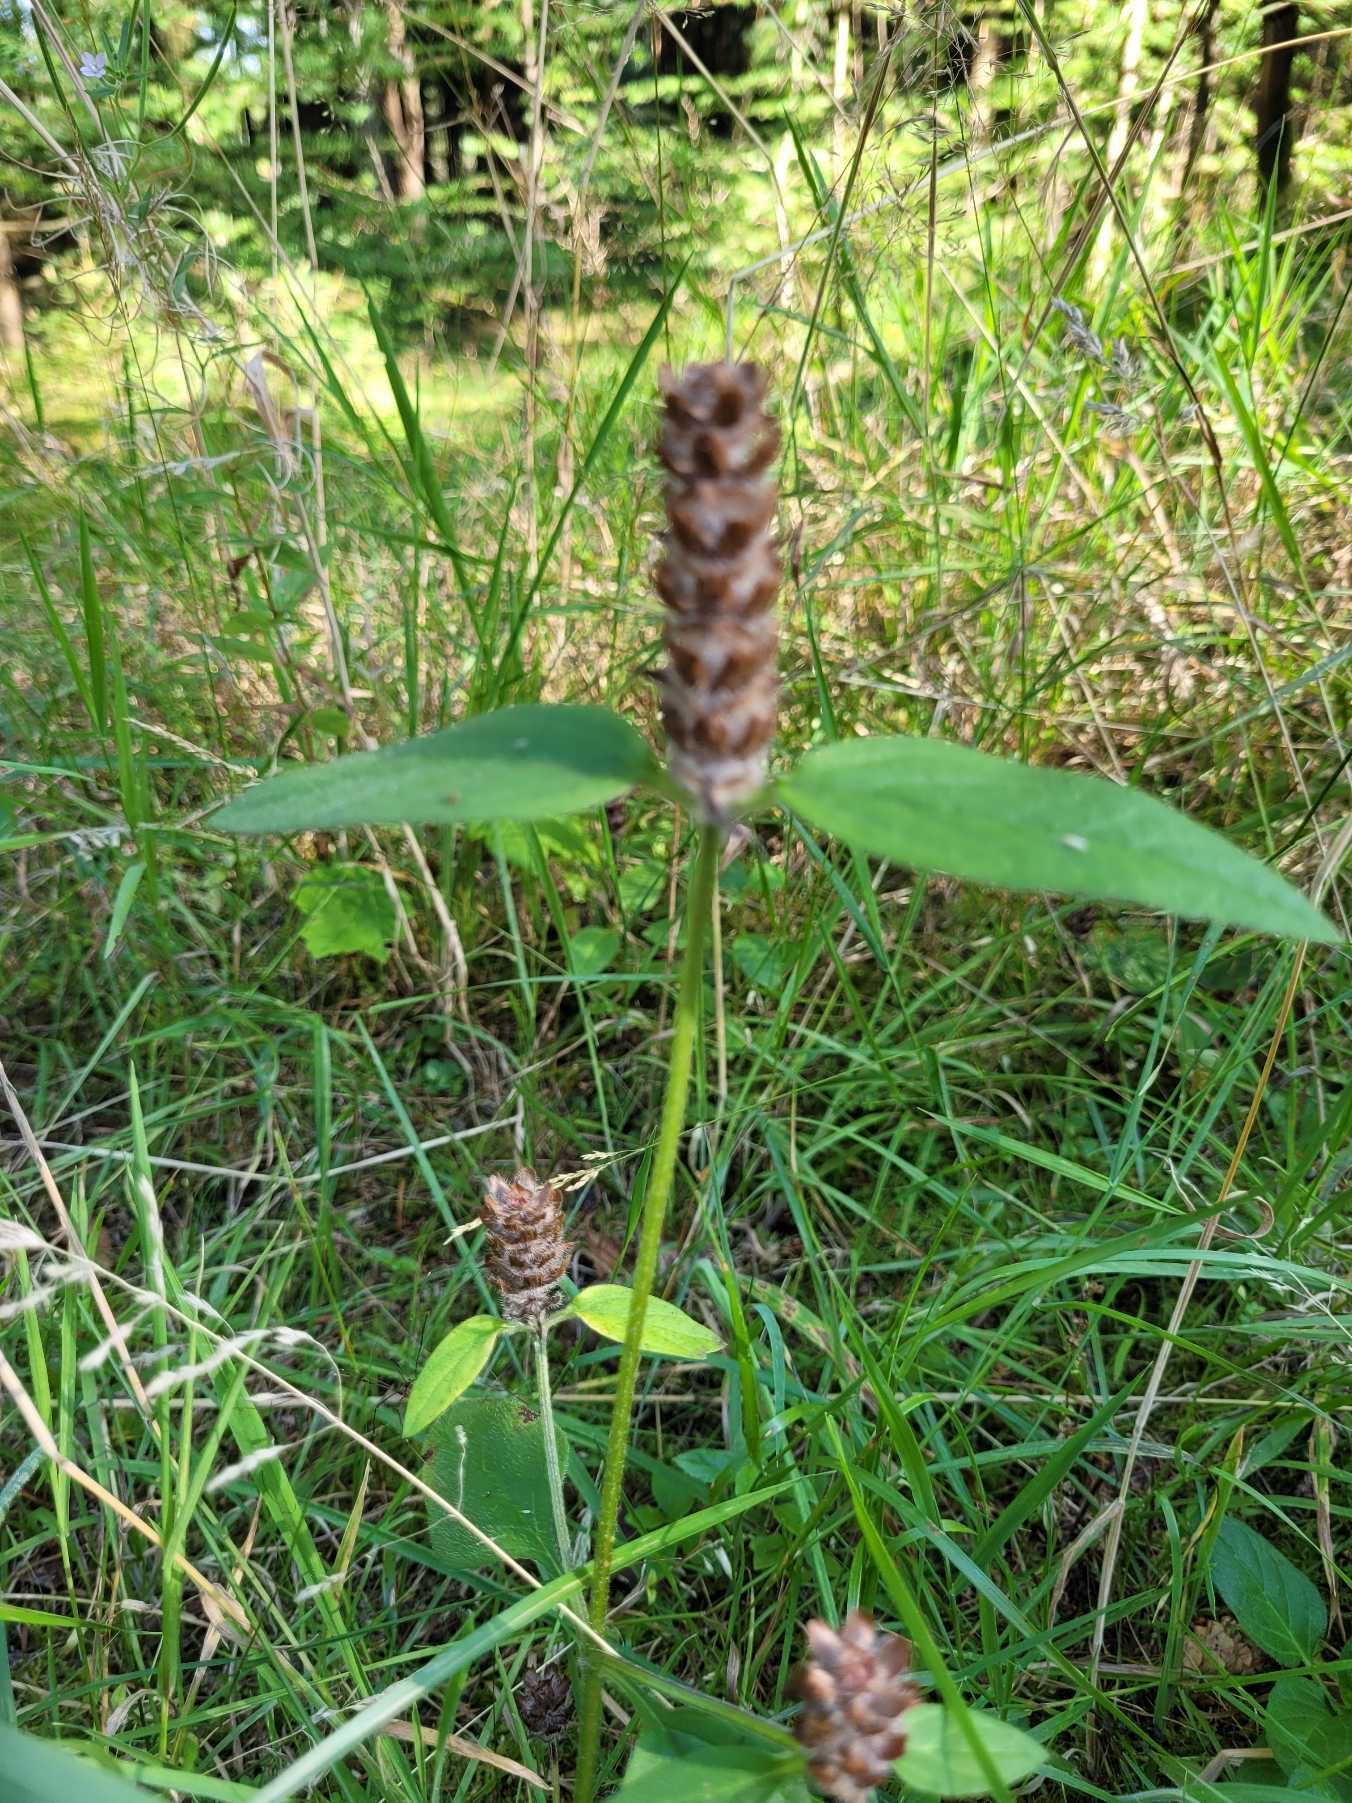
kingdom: Plantae
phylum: Tracheophyta
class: Magnoliopsida
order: Lamiales
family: Lamiaceae
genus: Prunella
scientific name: Prunella vulgaris
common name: Almindelig brunelle
